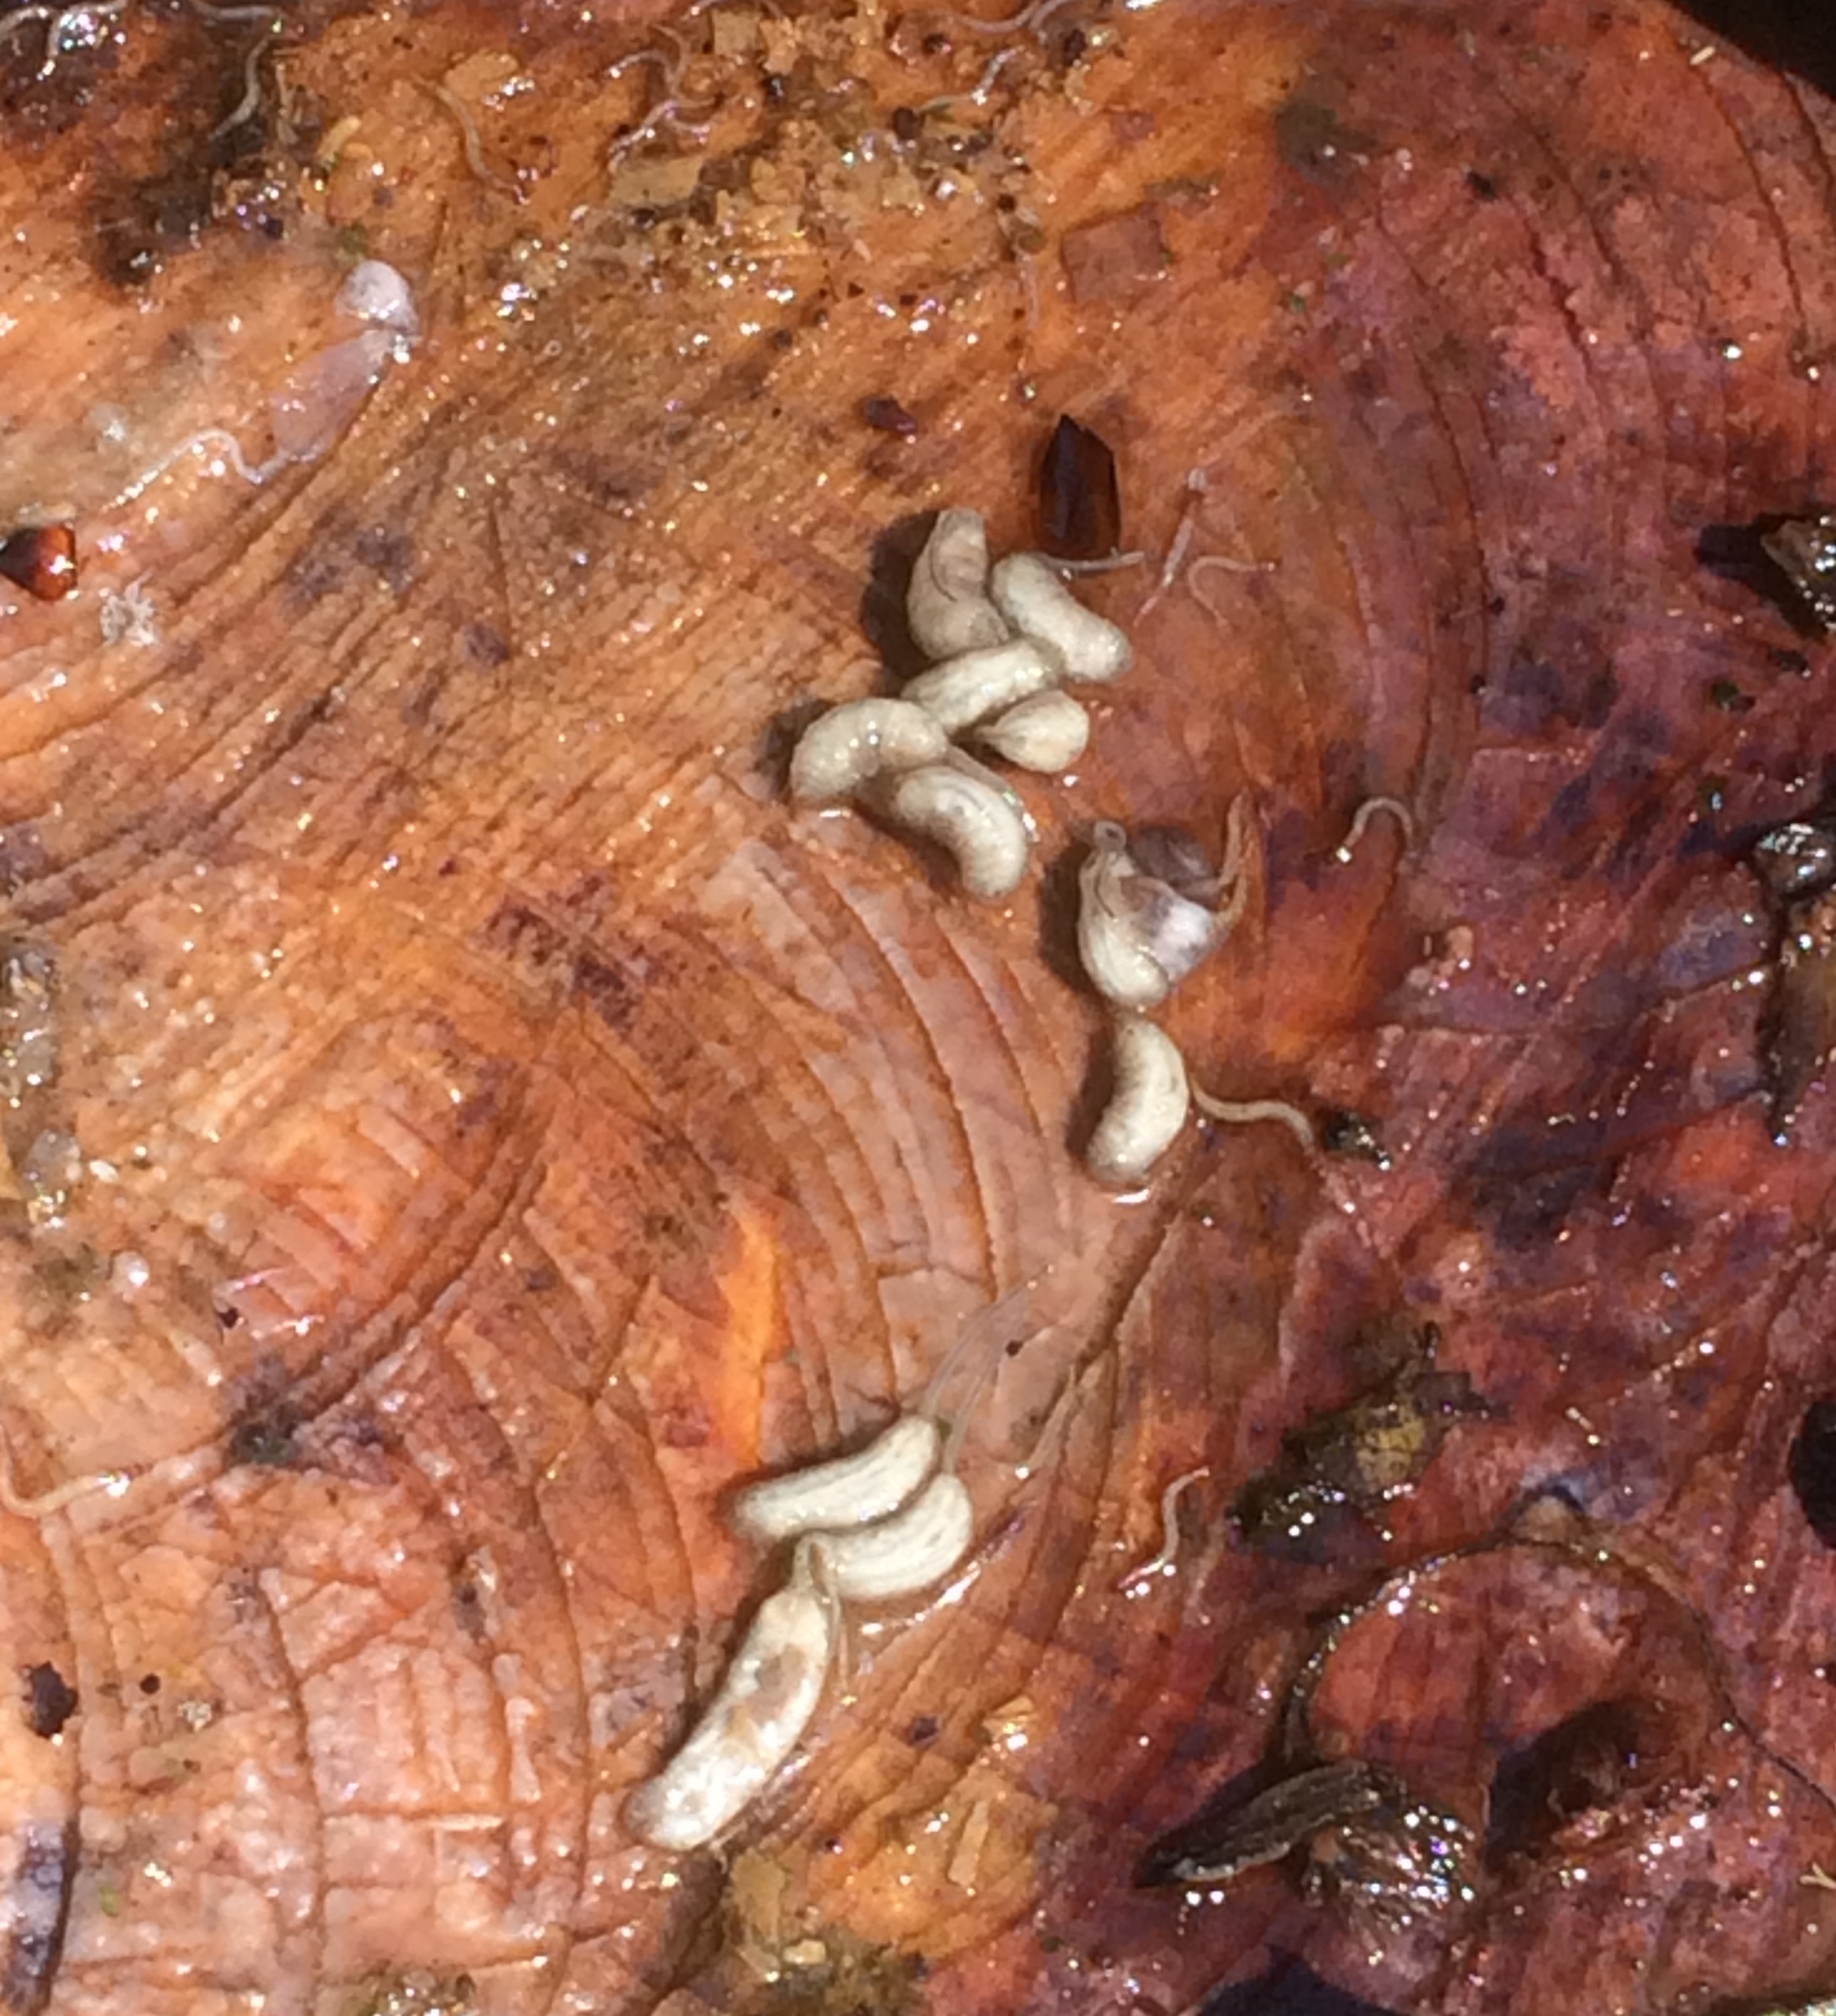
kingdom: Animalia
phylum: Arthropoda
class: Insecta
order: Diptera
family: Syrphidae
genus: Eristalis
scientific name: Eristalis pertinax
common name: Gulfodet dyndflue
